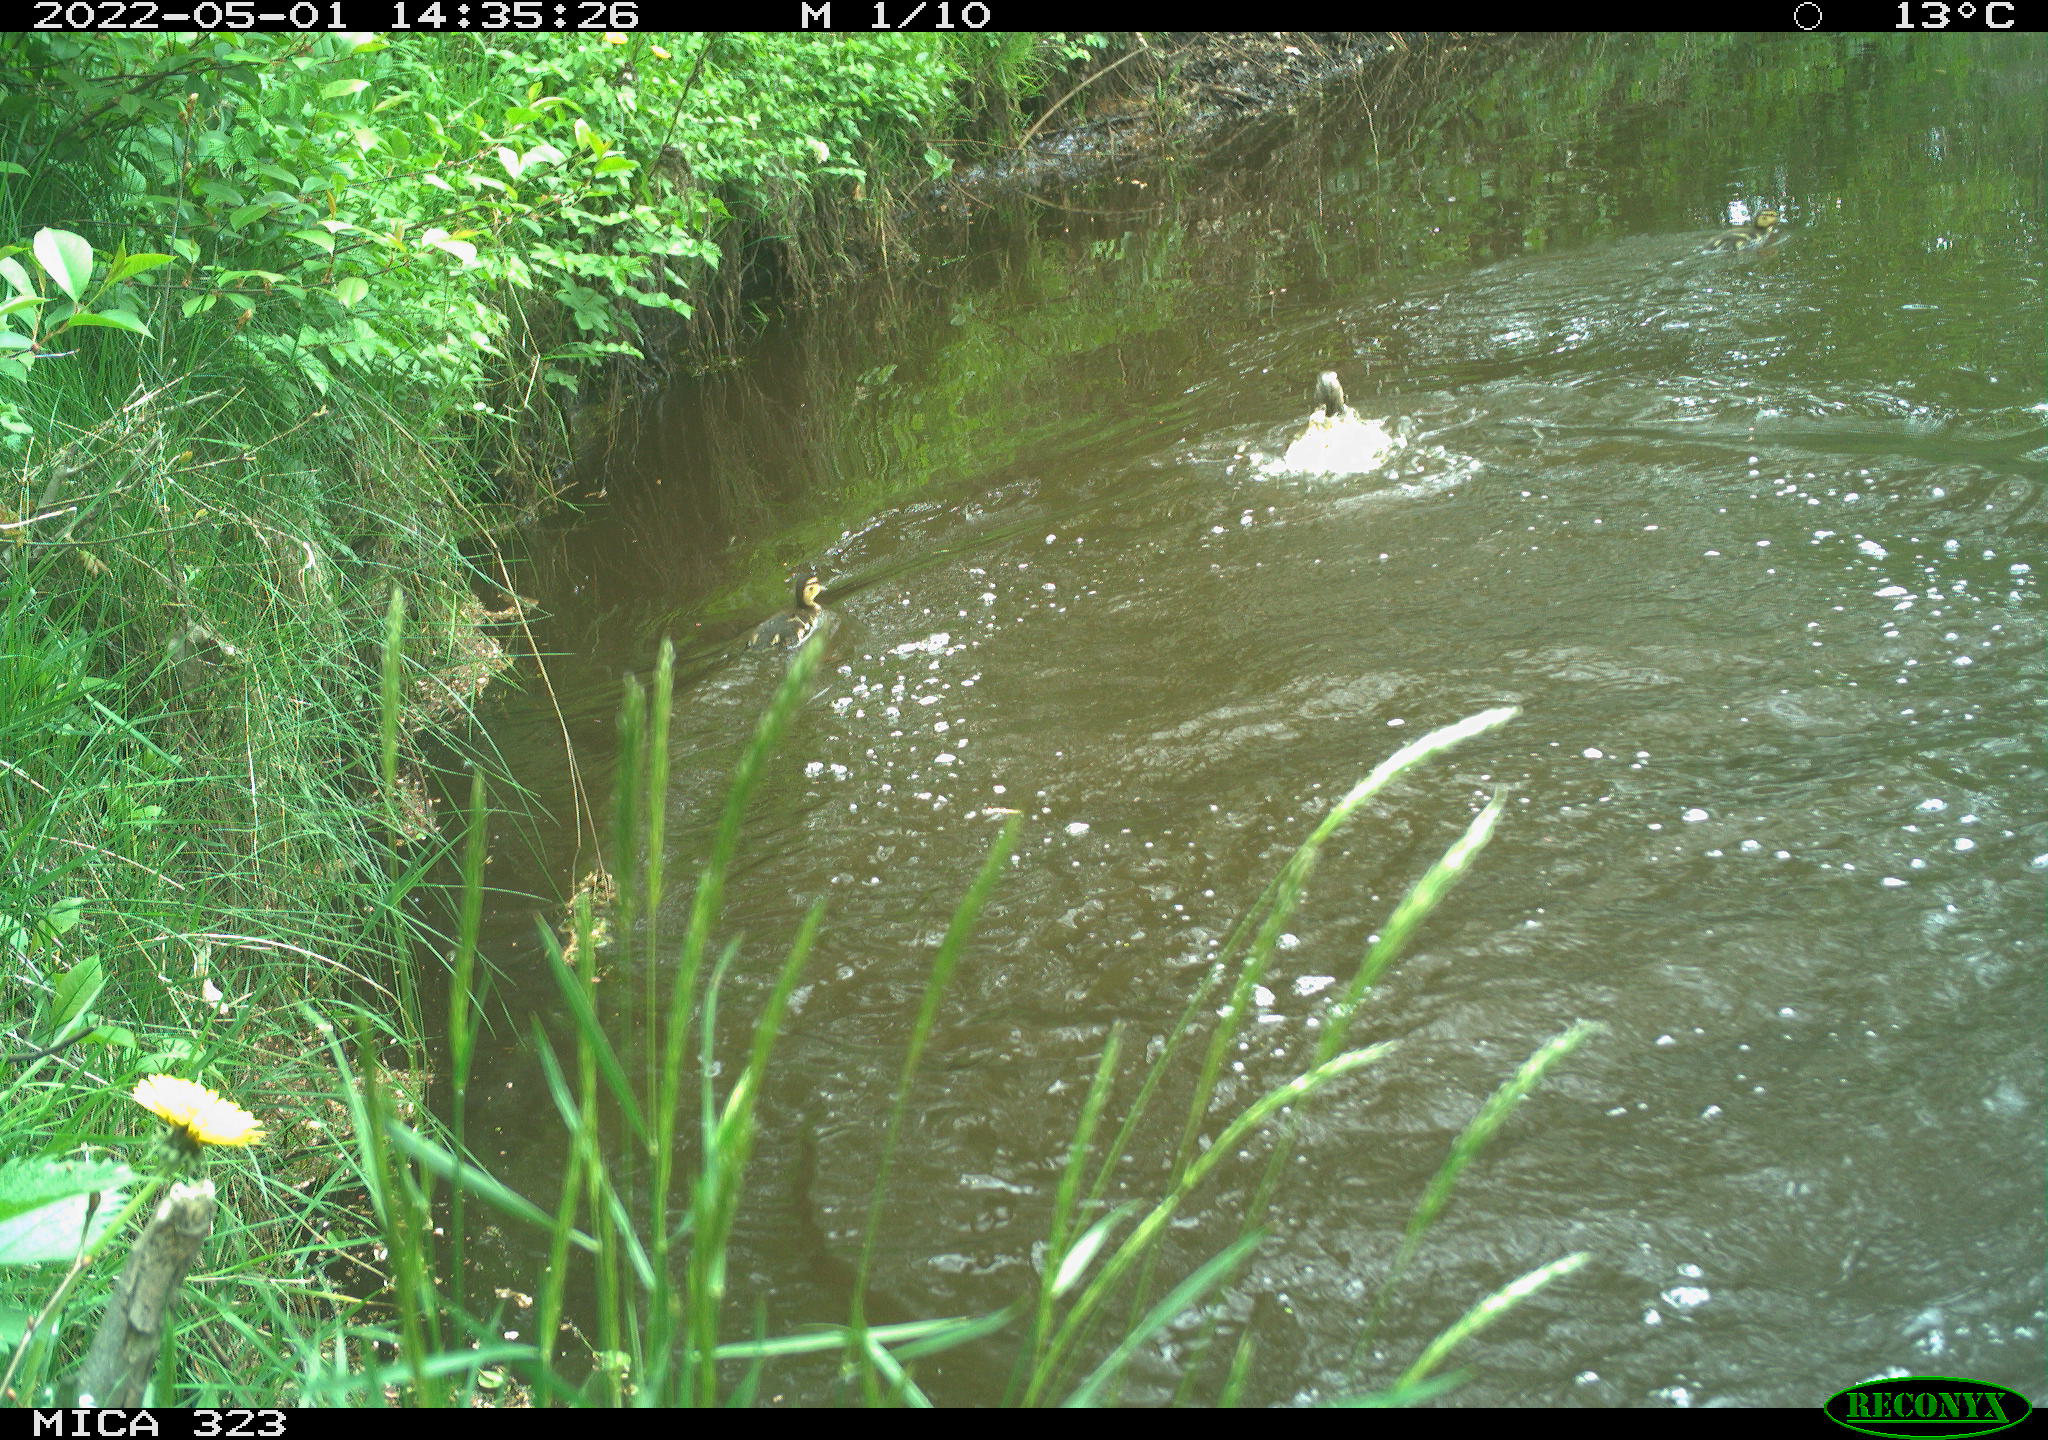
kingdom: Animalia
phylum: Chordata
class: Aves
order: Anseriformes
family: Anatidae
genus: Anas
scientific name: Anas platyrhynchos
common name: Mallard
